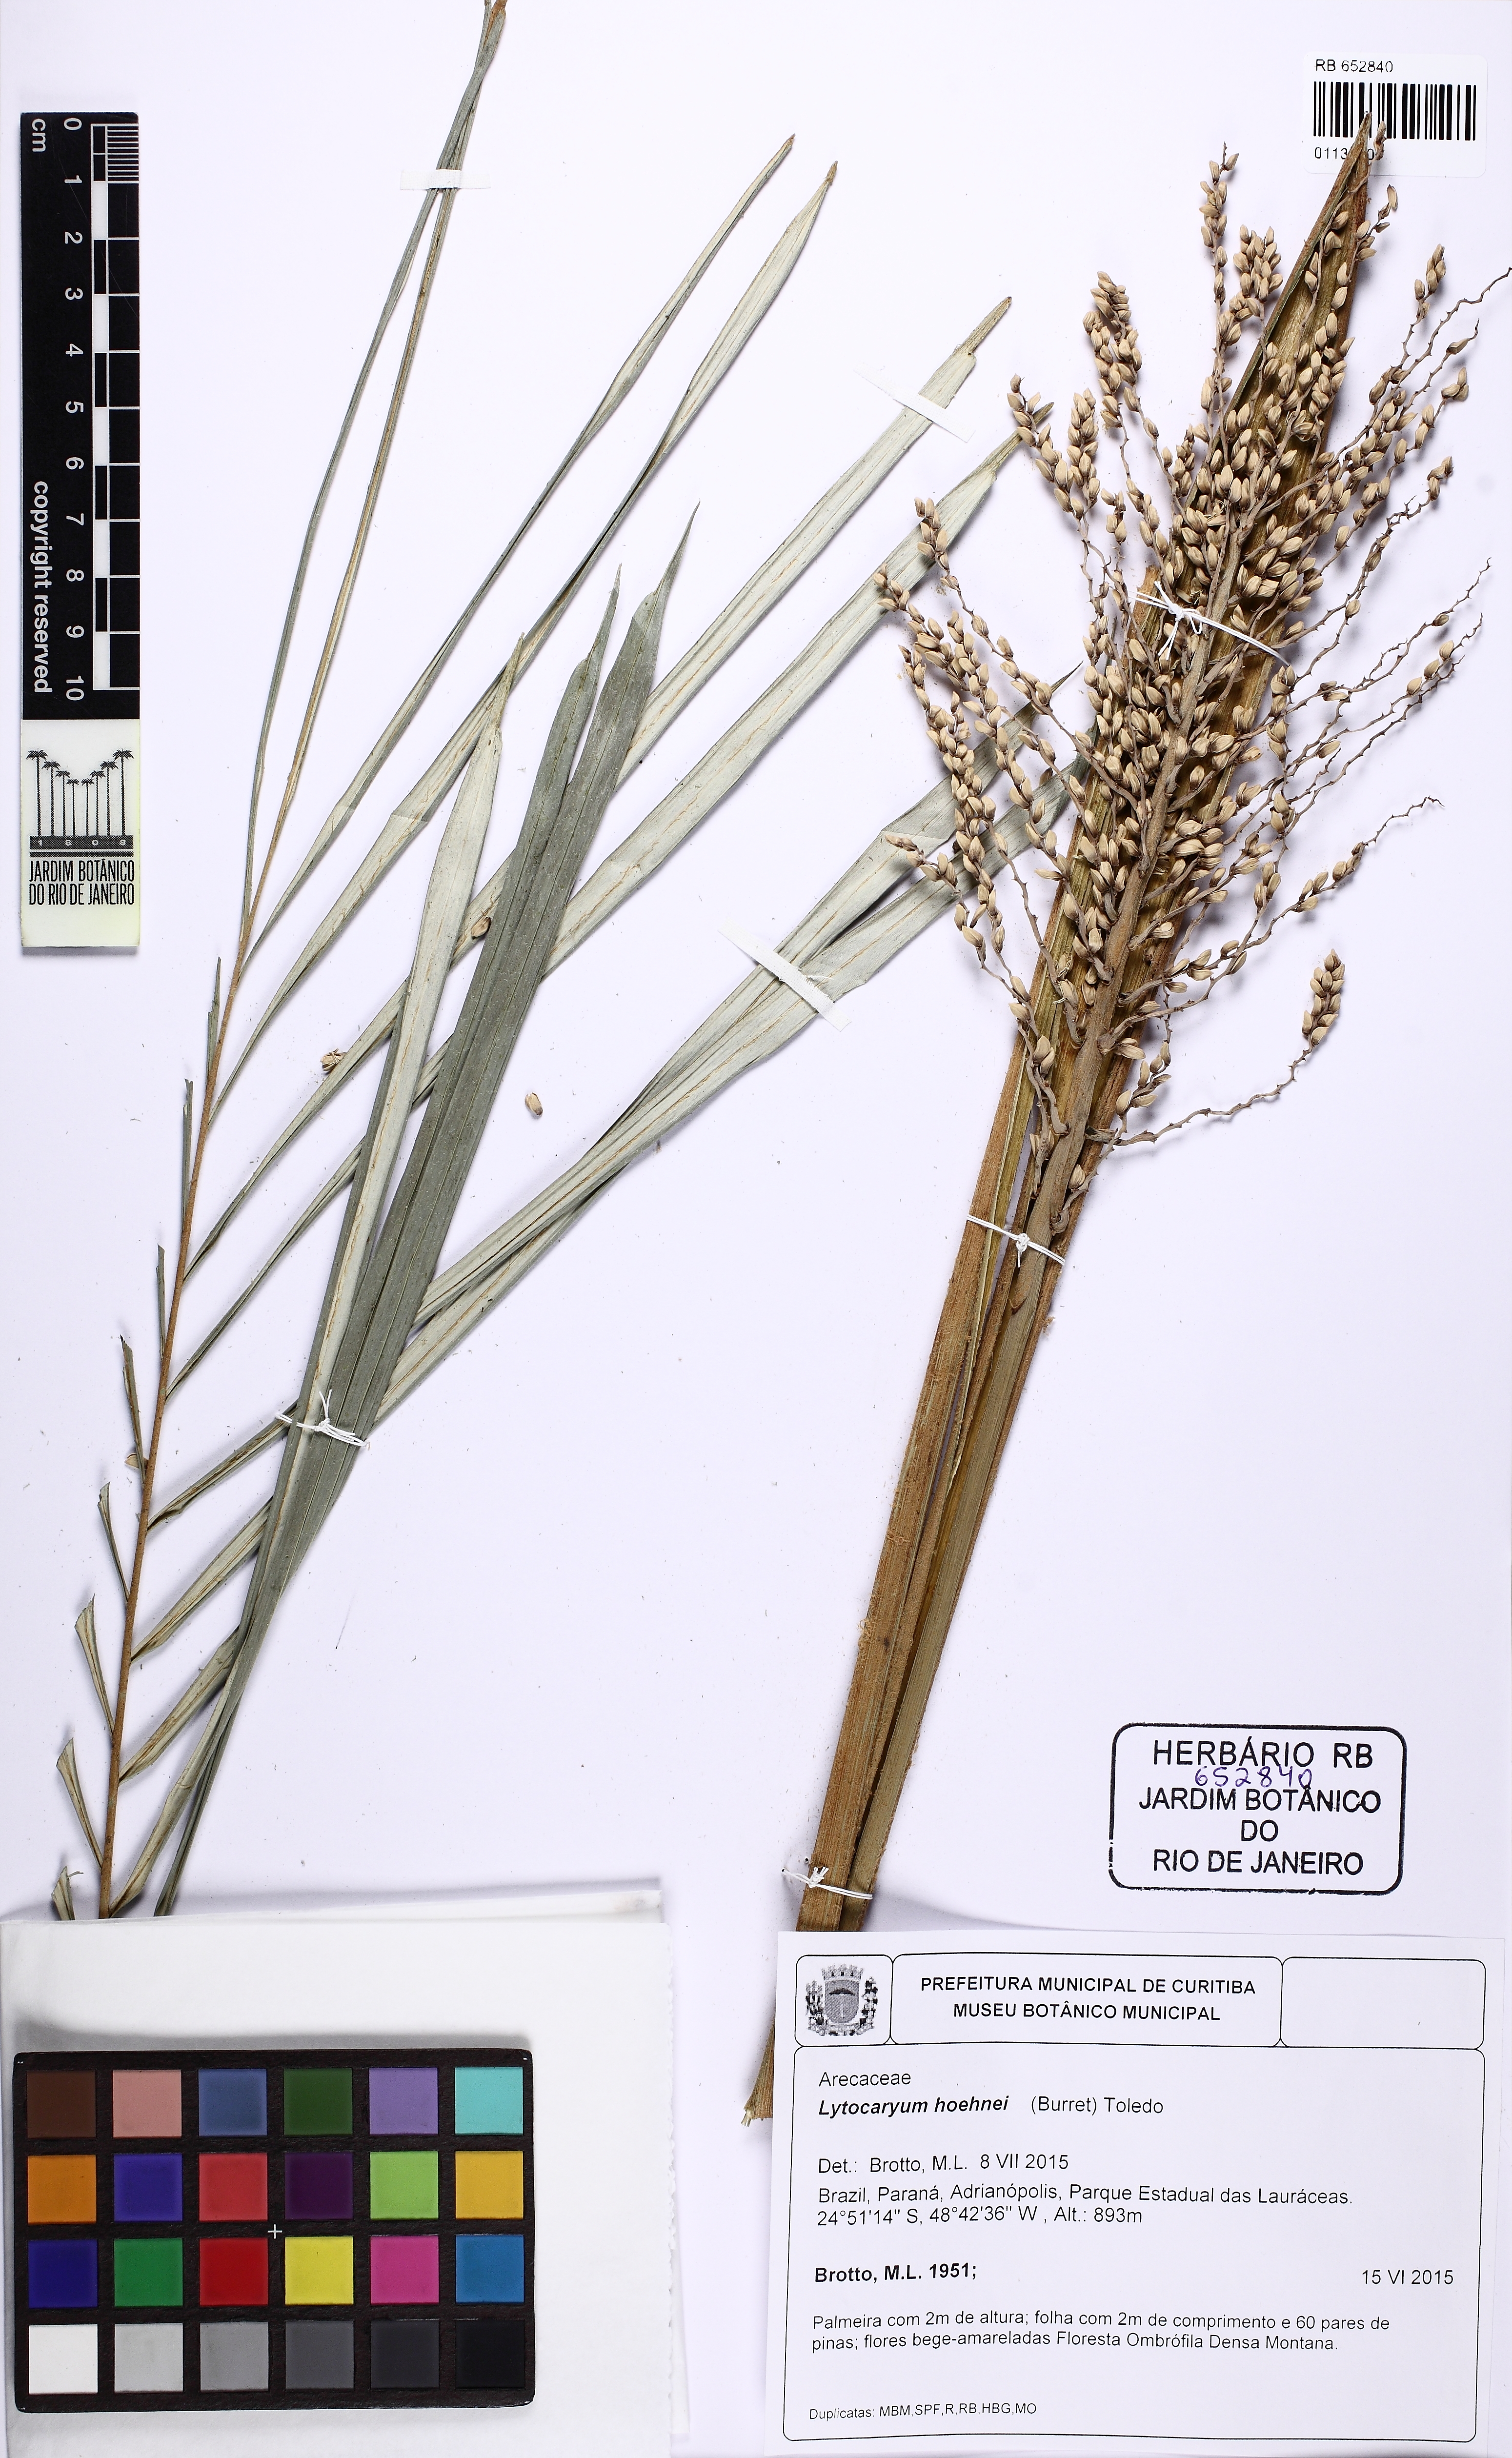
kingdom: Plantae
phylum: Tracheophyta
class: Liliopsida
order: Arecales
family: Arecaceae
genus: Syagrus
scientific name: Syagrus hoehnei
